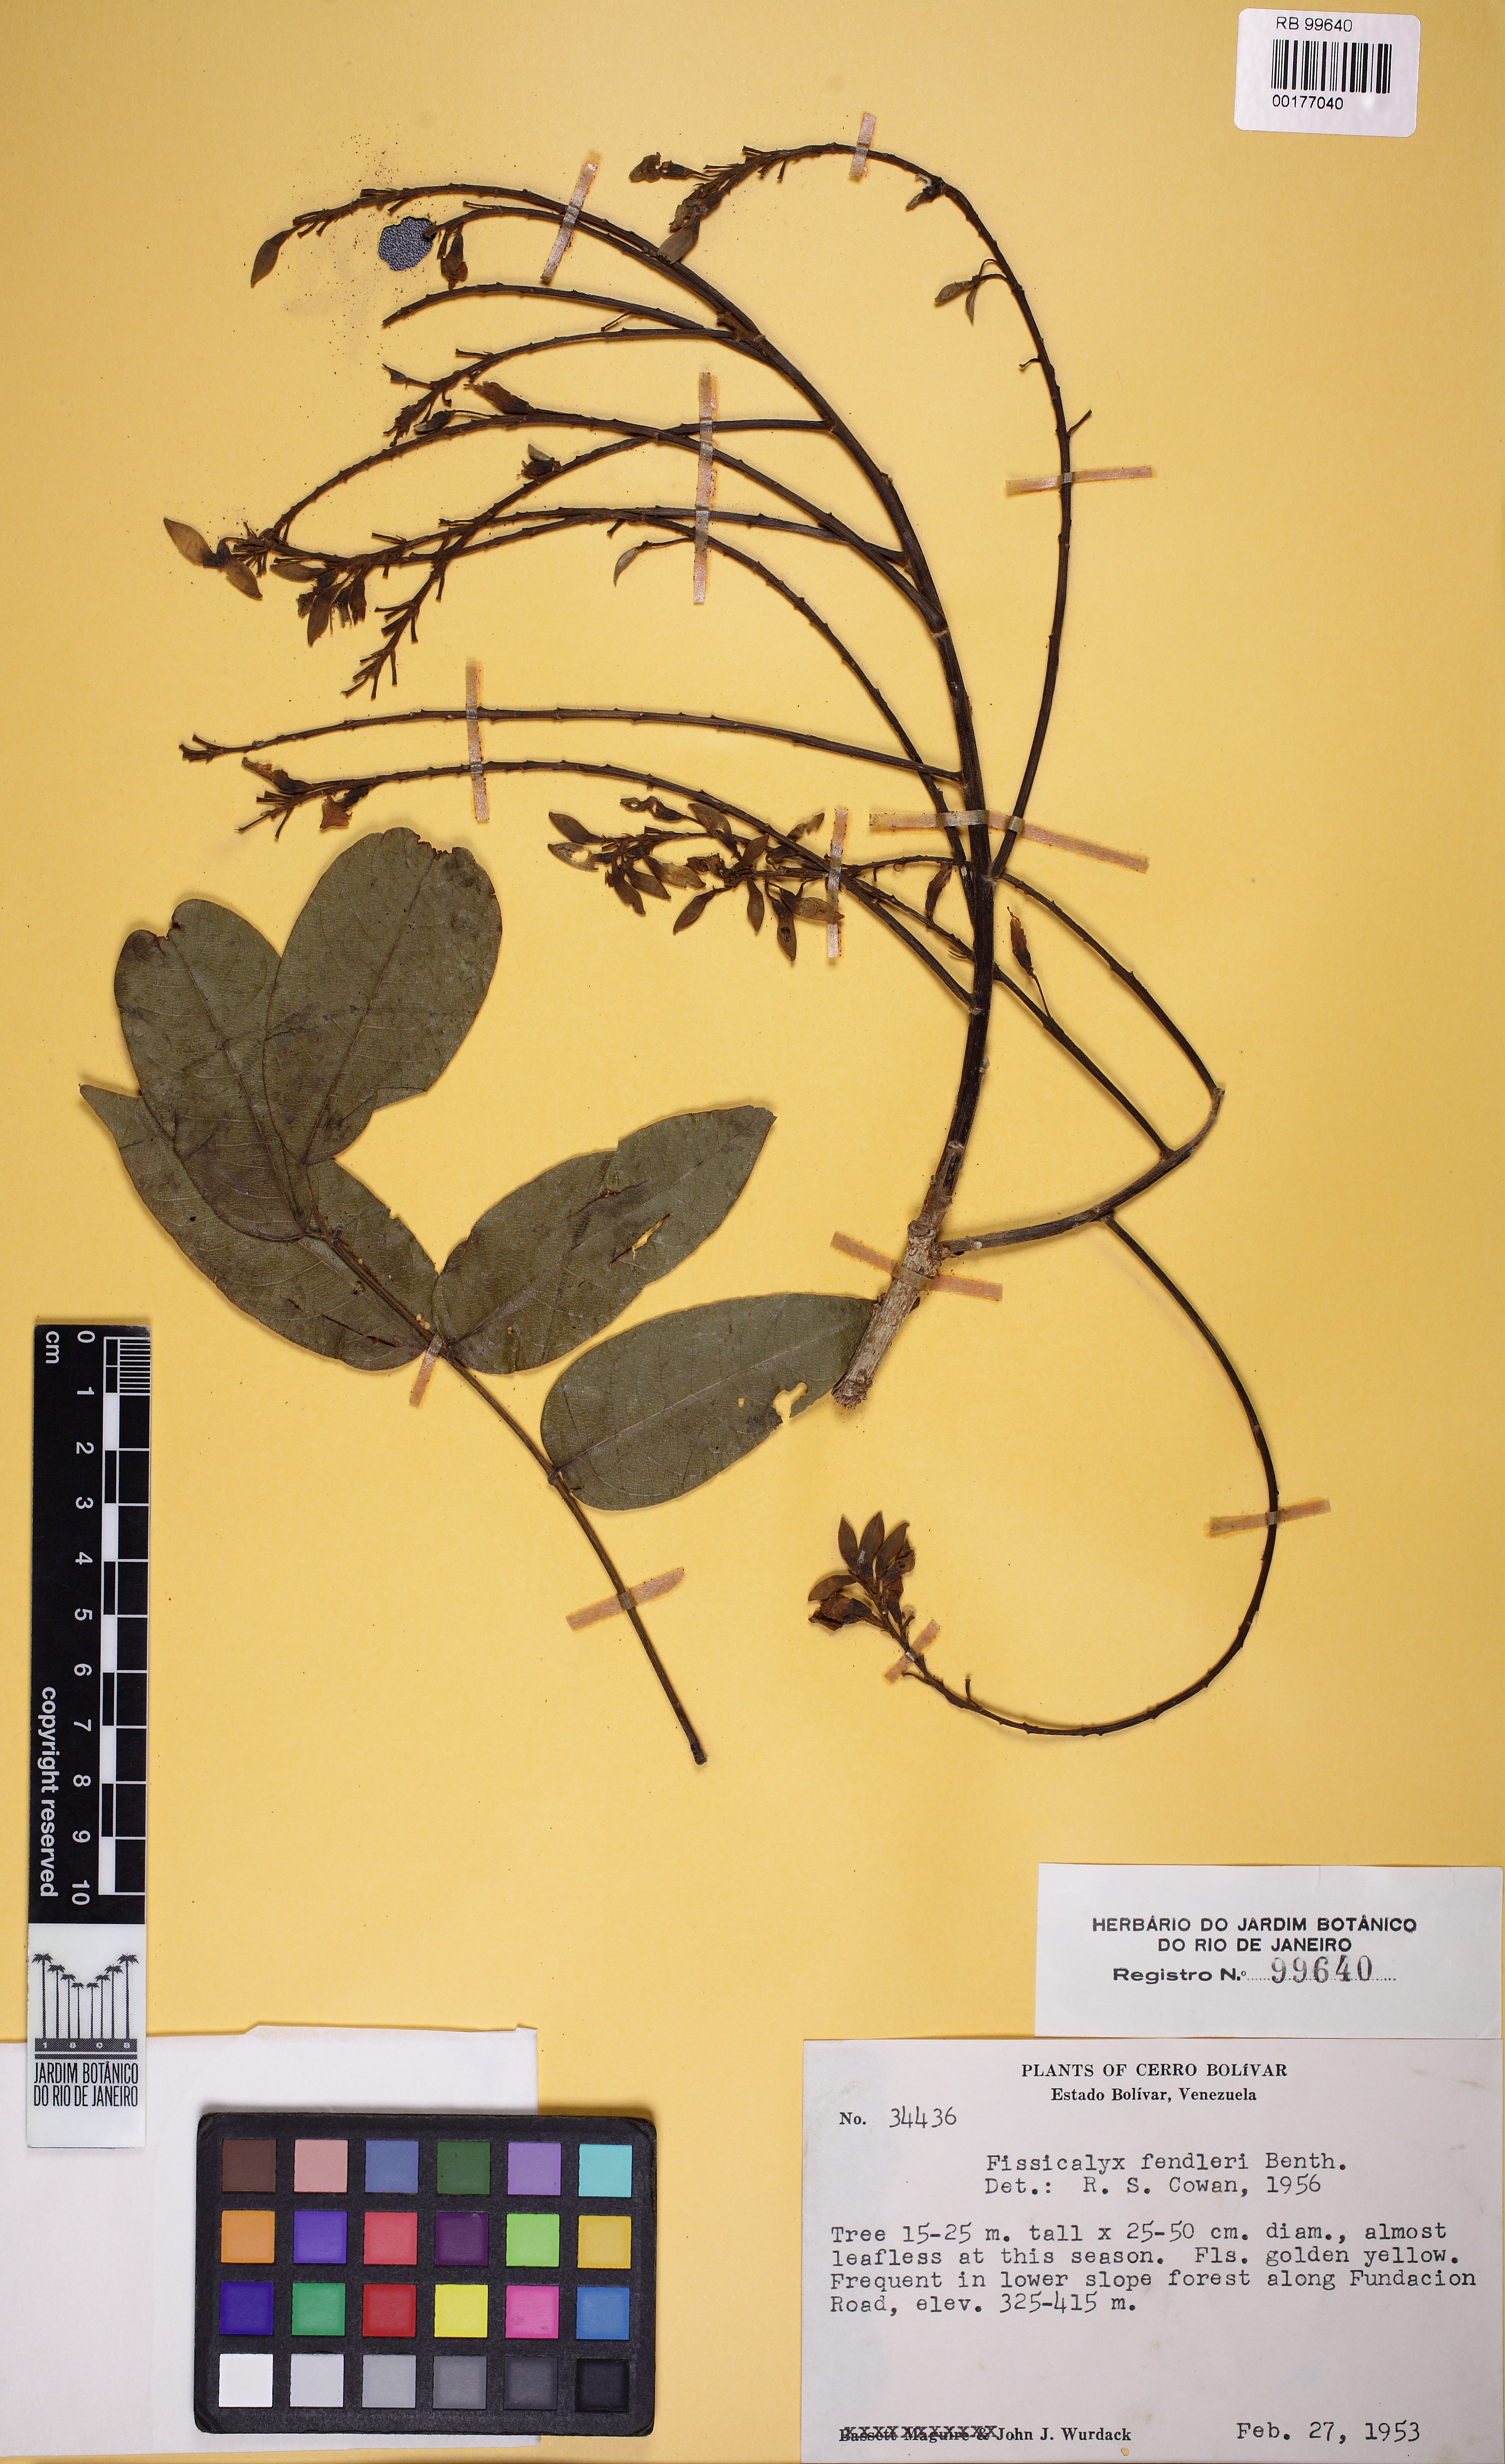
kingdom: Plantae
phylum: Tracheophyta
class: Magnoliopsida
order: Fabales
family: Fabaceae
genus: Fissicalyx
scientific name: Fissicalyx fendleri
